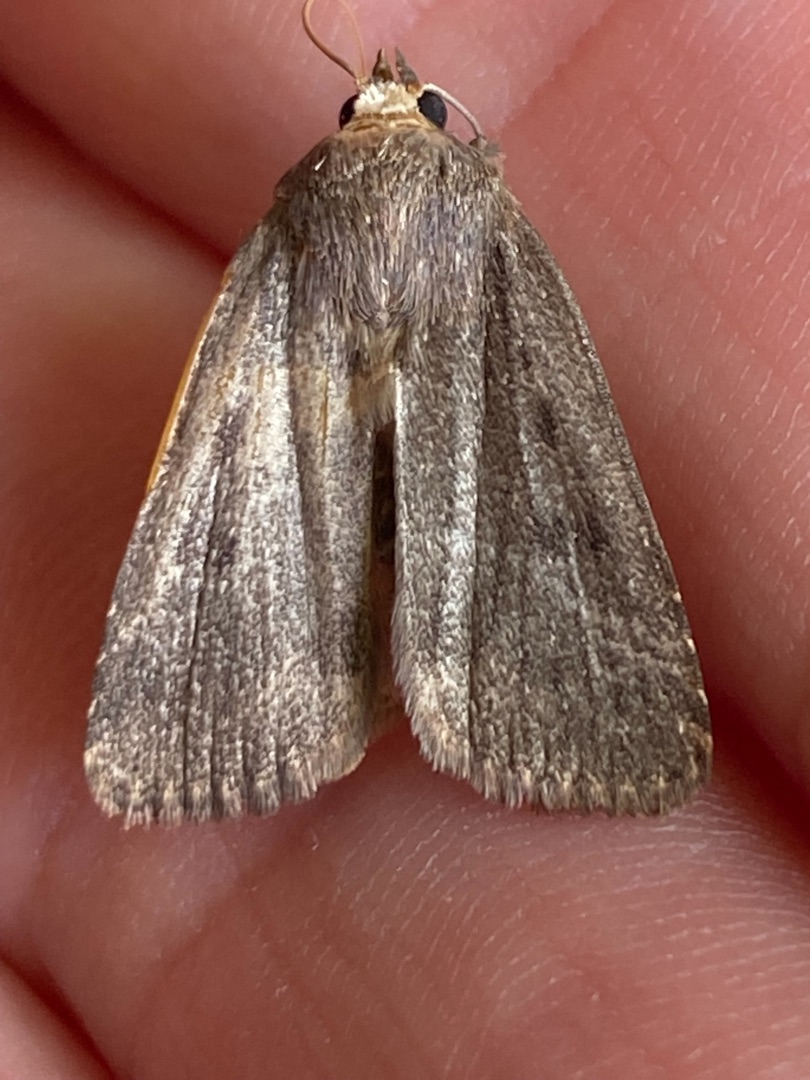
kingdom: Animalia
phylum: Arthropoda
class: Insecta
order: Lepidoptera
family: Noctuidae
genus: Amphipyra
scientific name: Amphipyra tragopoginis
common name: Blyantsugle
